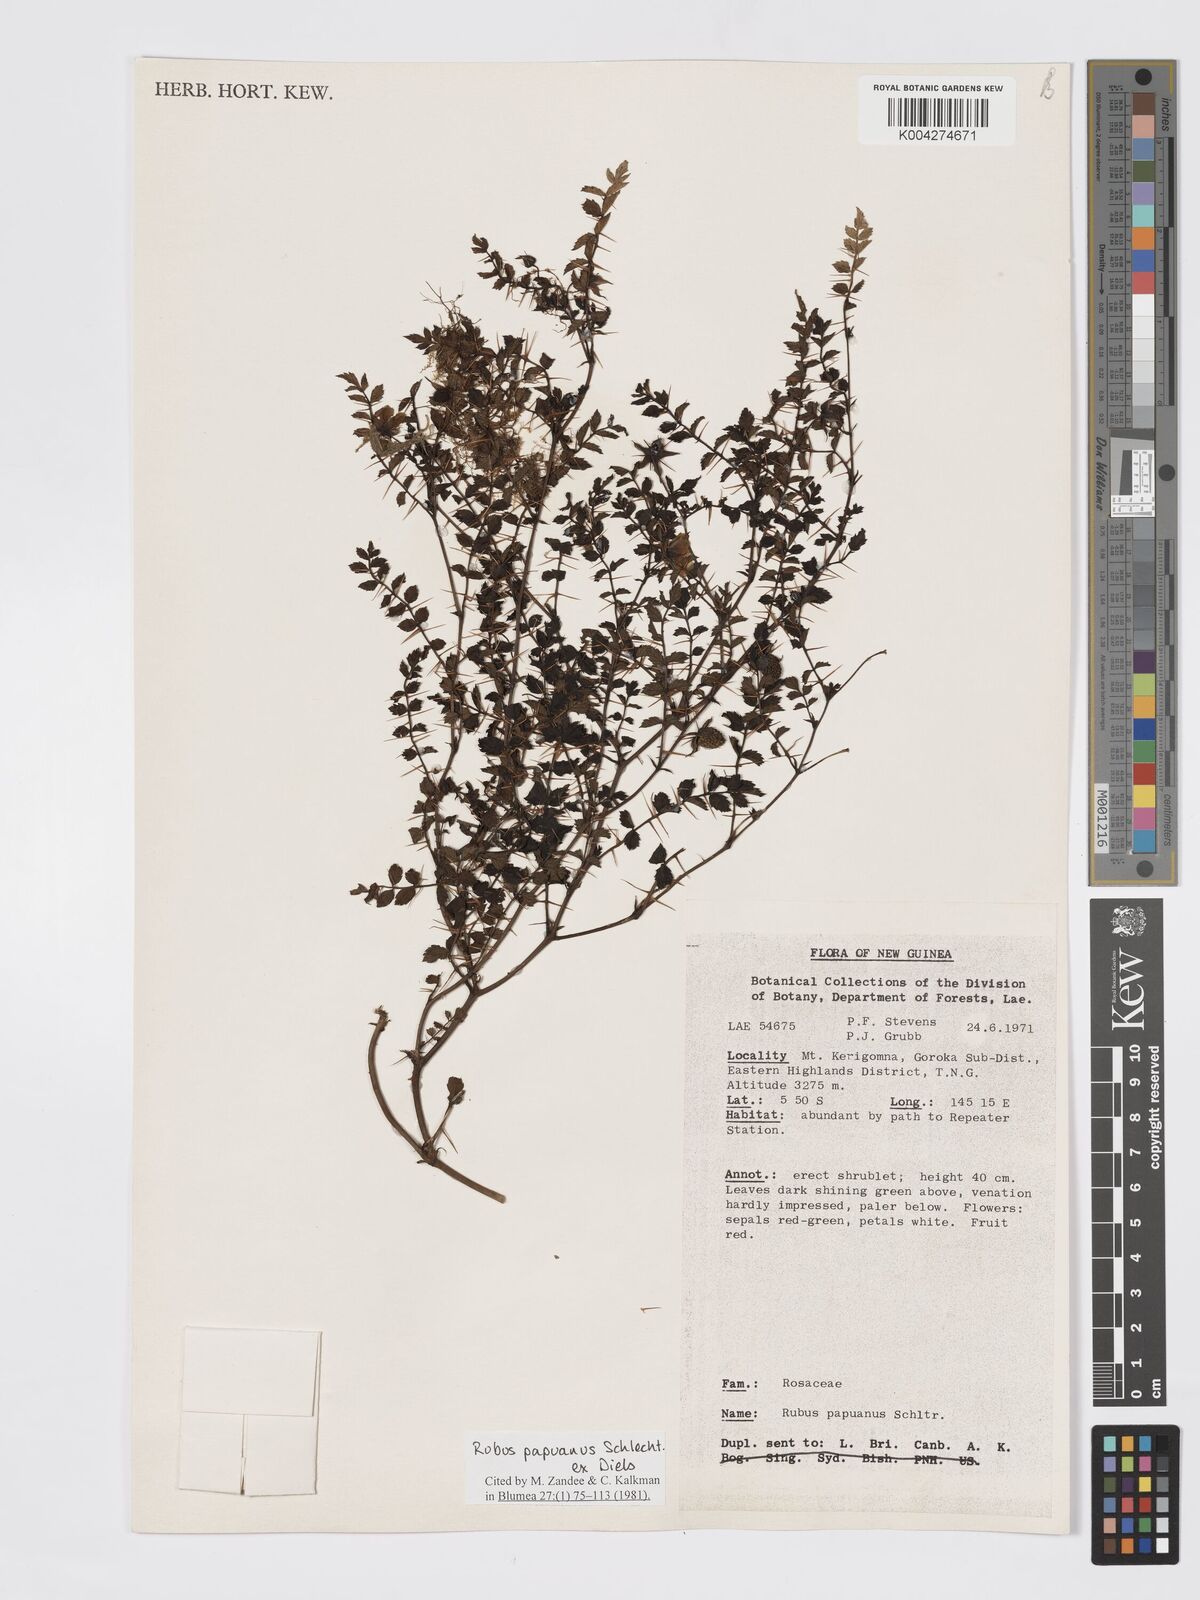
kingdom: Plantae
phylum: Tracheophyta
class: Magnoliopsida
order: Rosales
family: Rosaceae
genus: Rubus
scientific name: Rubus papuanus
